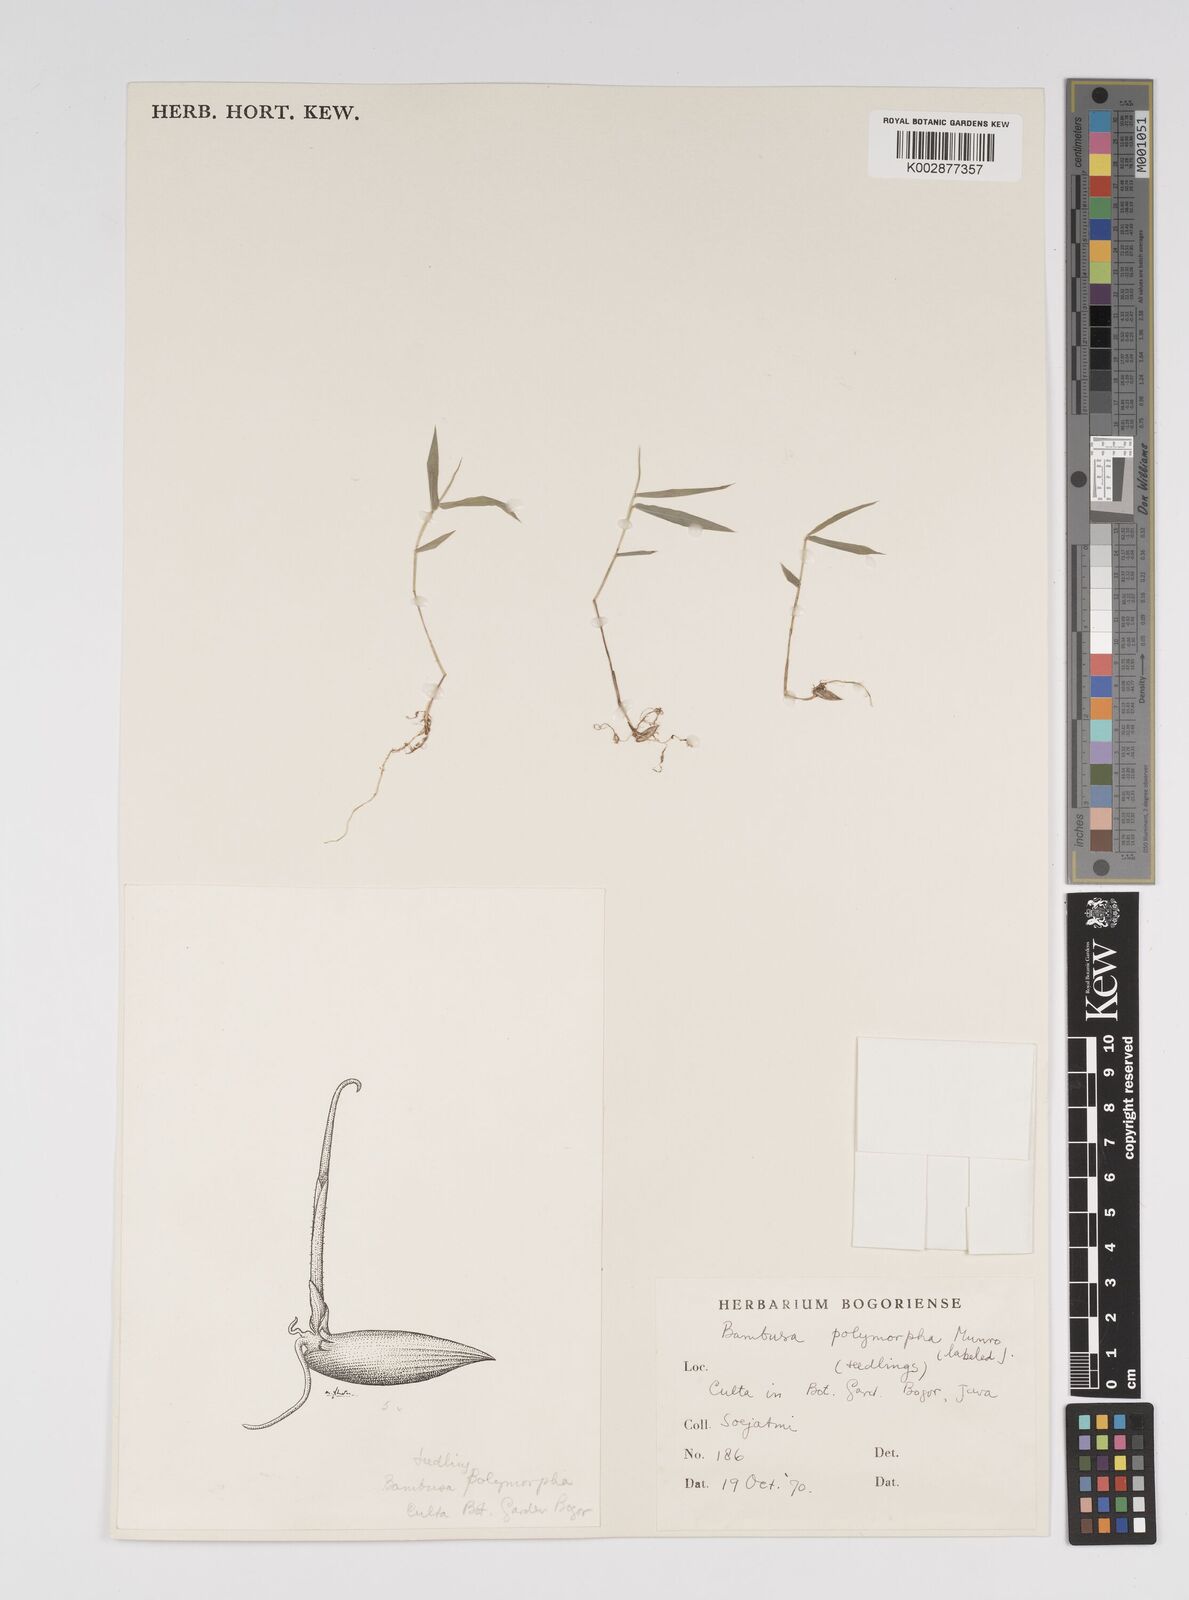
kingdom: Plantae
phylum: Tracheophyta
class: Liliopsida
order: Poales
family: Poaceae
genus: Bambusa
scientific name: Bambusa polymorpha
